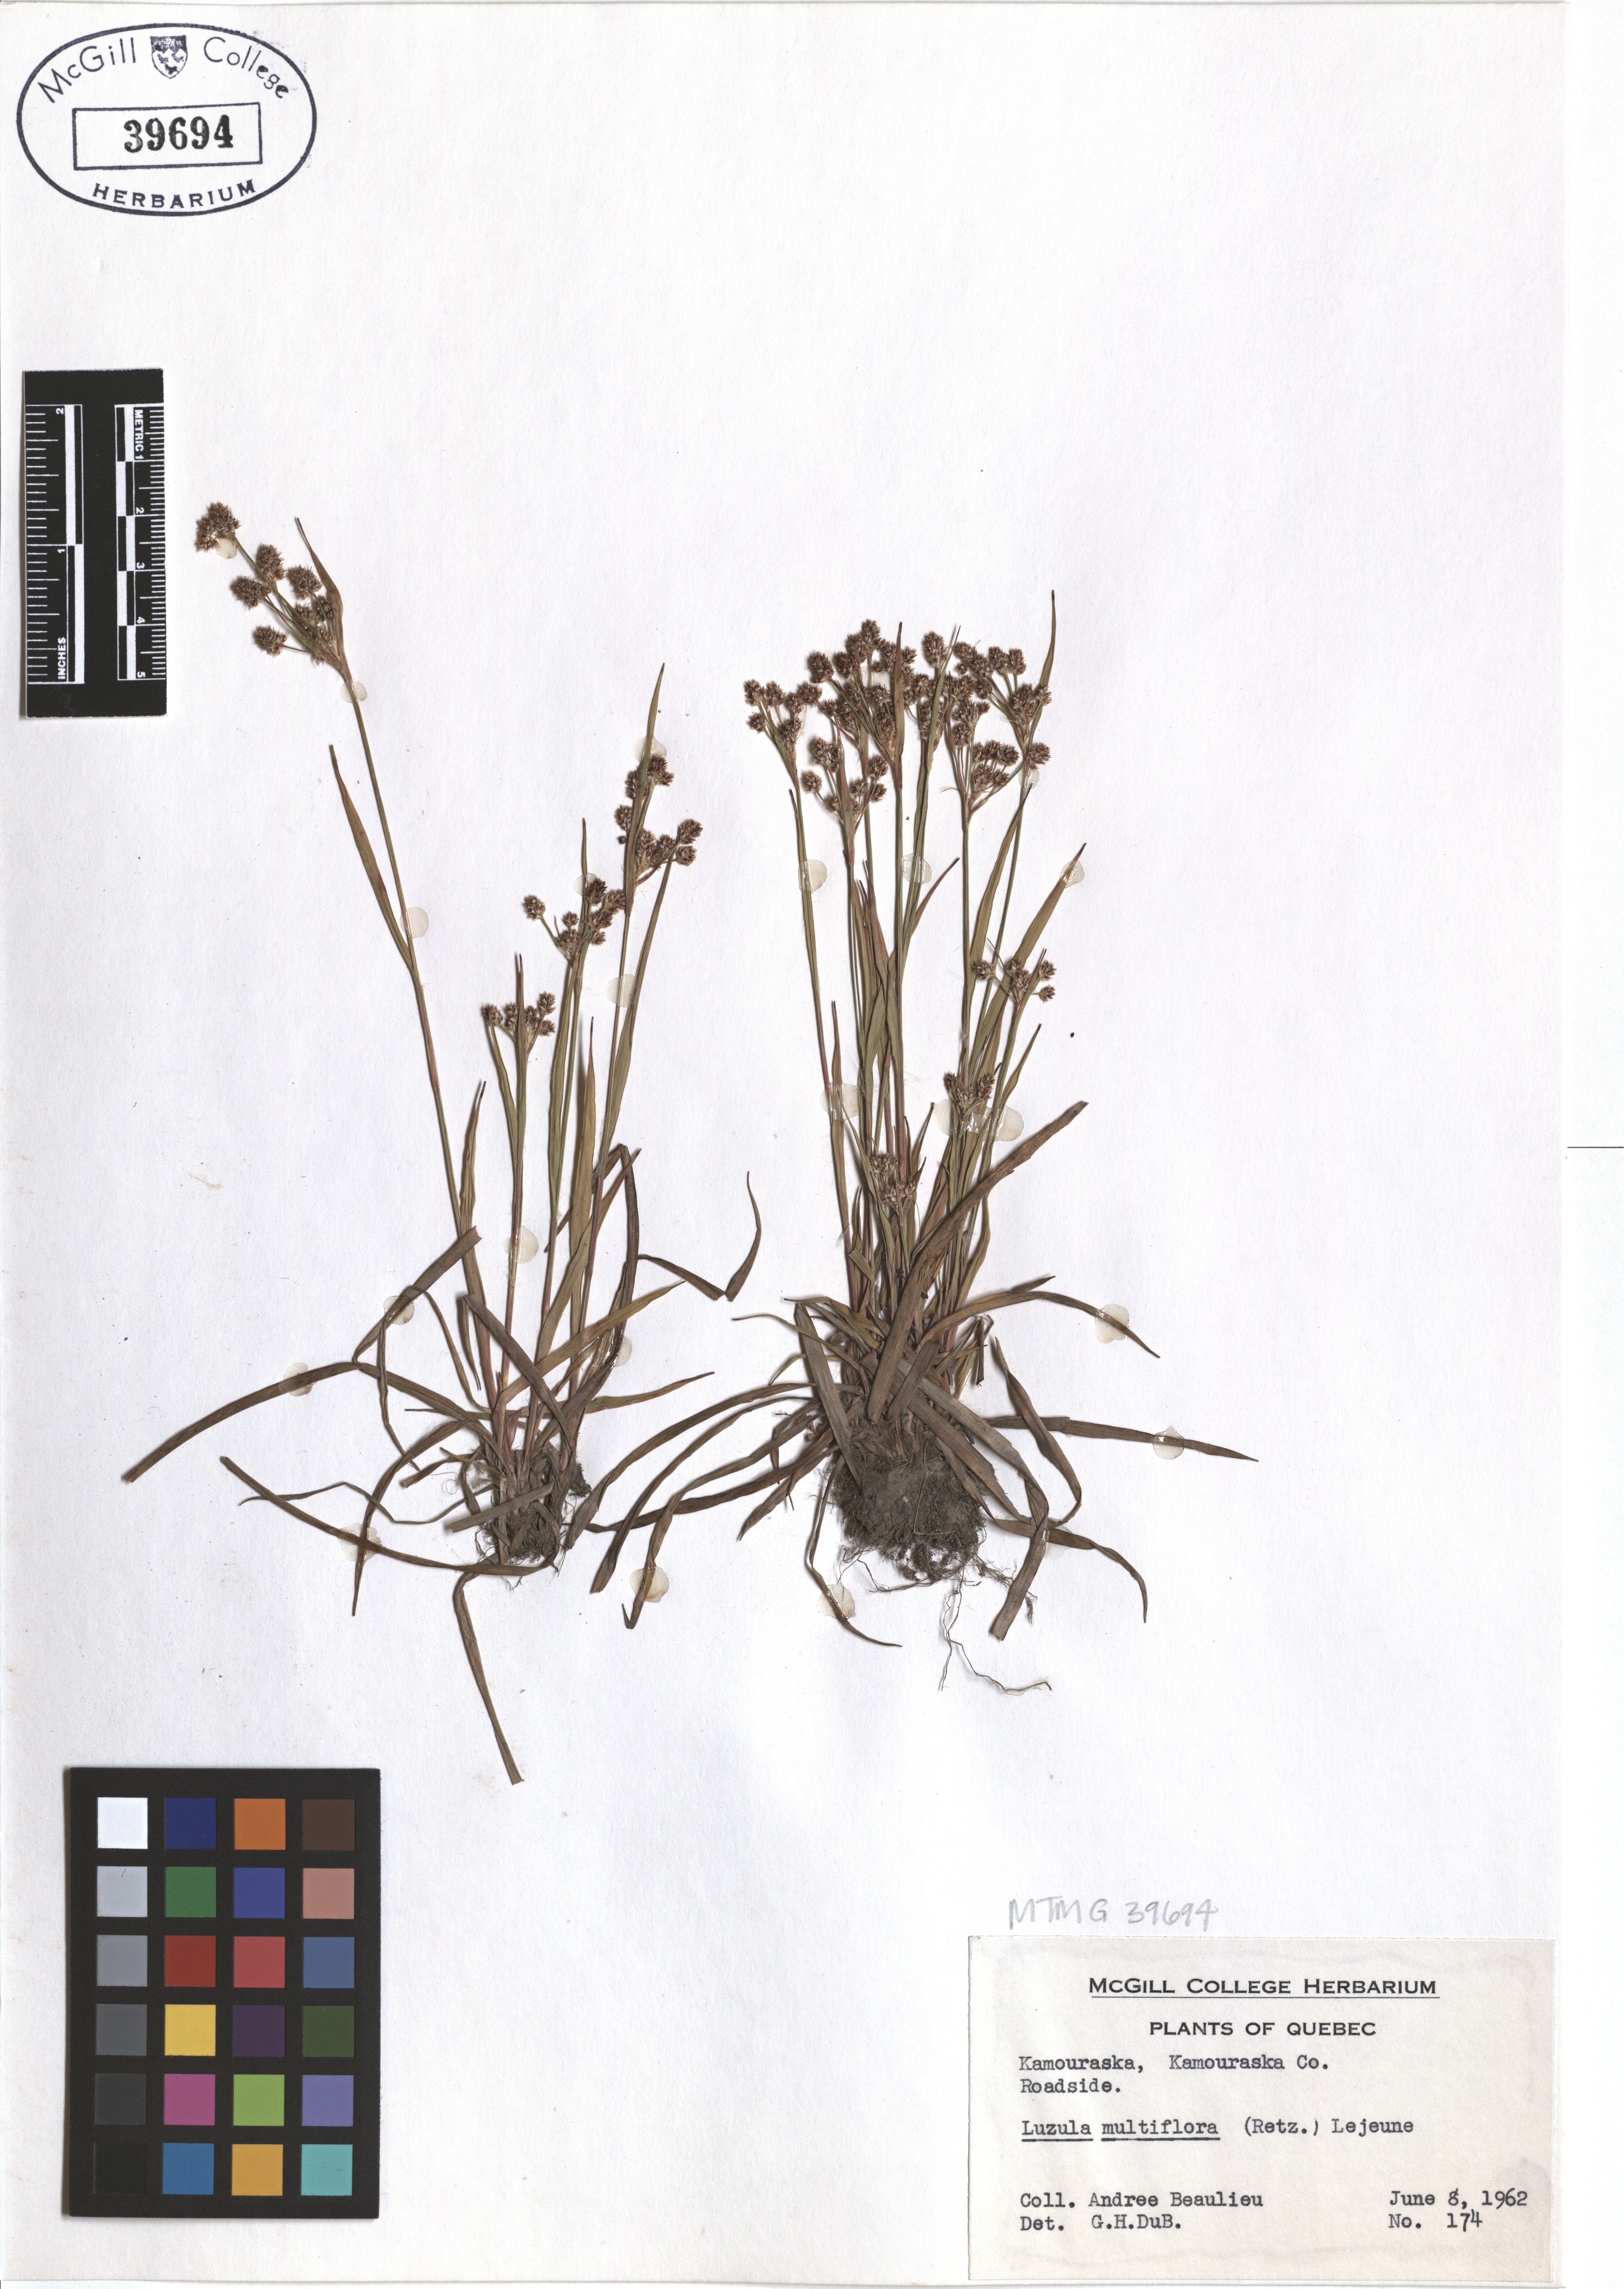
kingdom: Plantae
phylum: Tracheophyta
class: Liliopsida
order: Poales
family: Juncaceae
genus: Luzula
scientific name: Luzula multiflora
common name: Heath wood-rush
